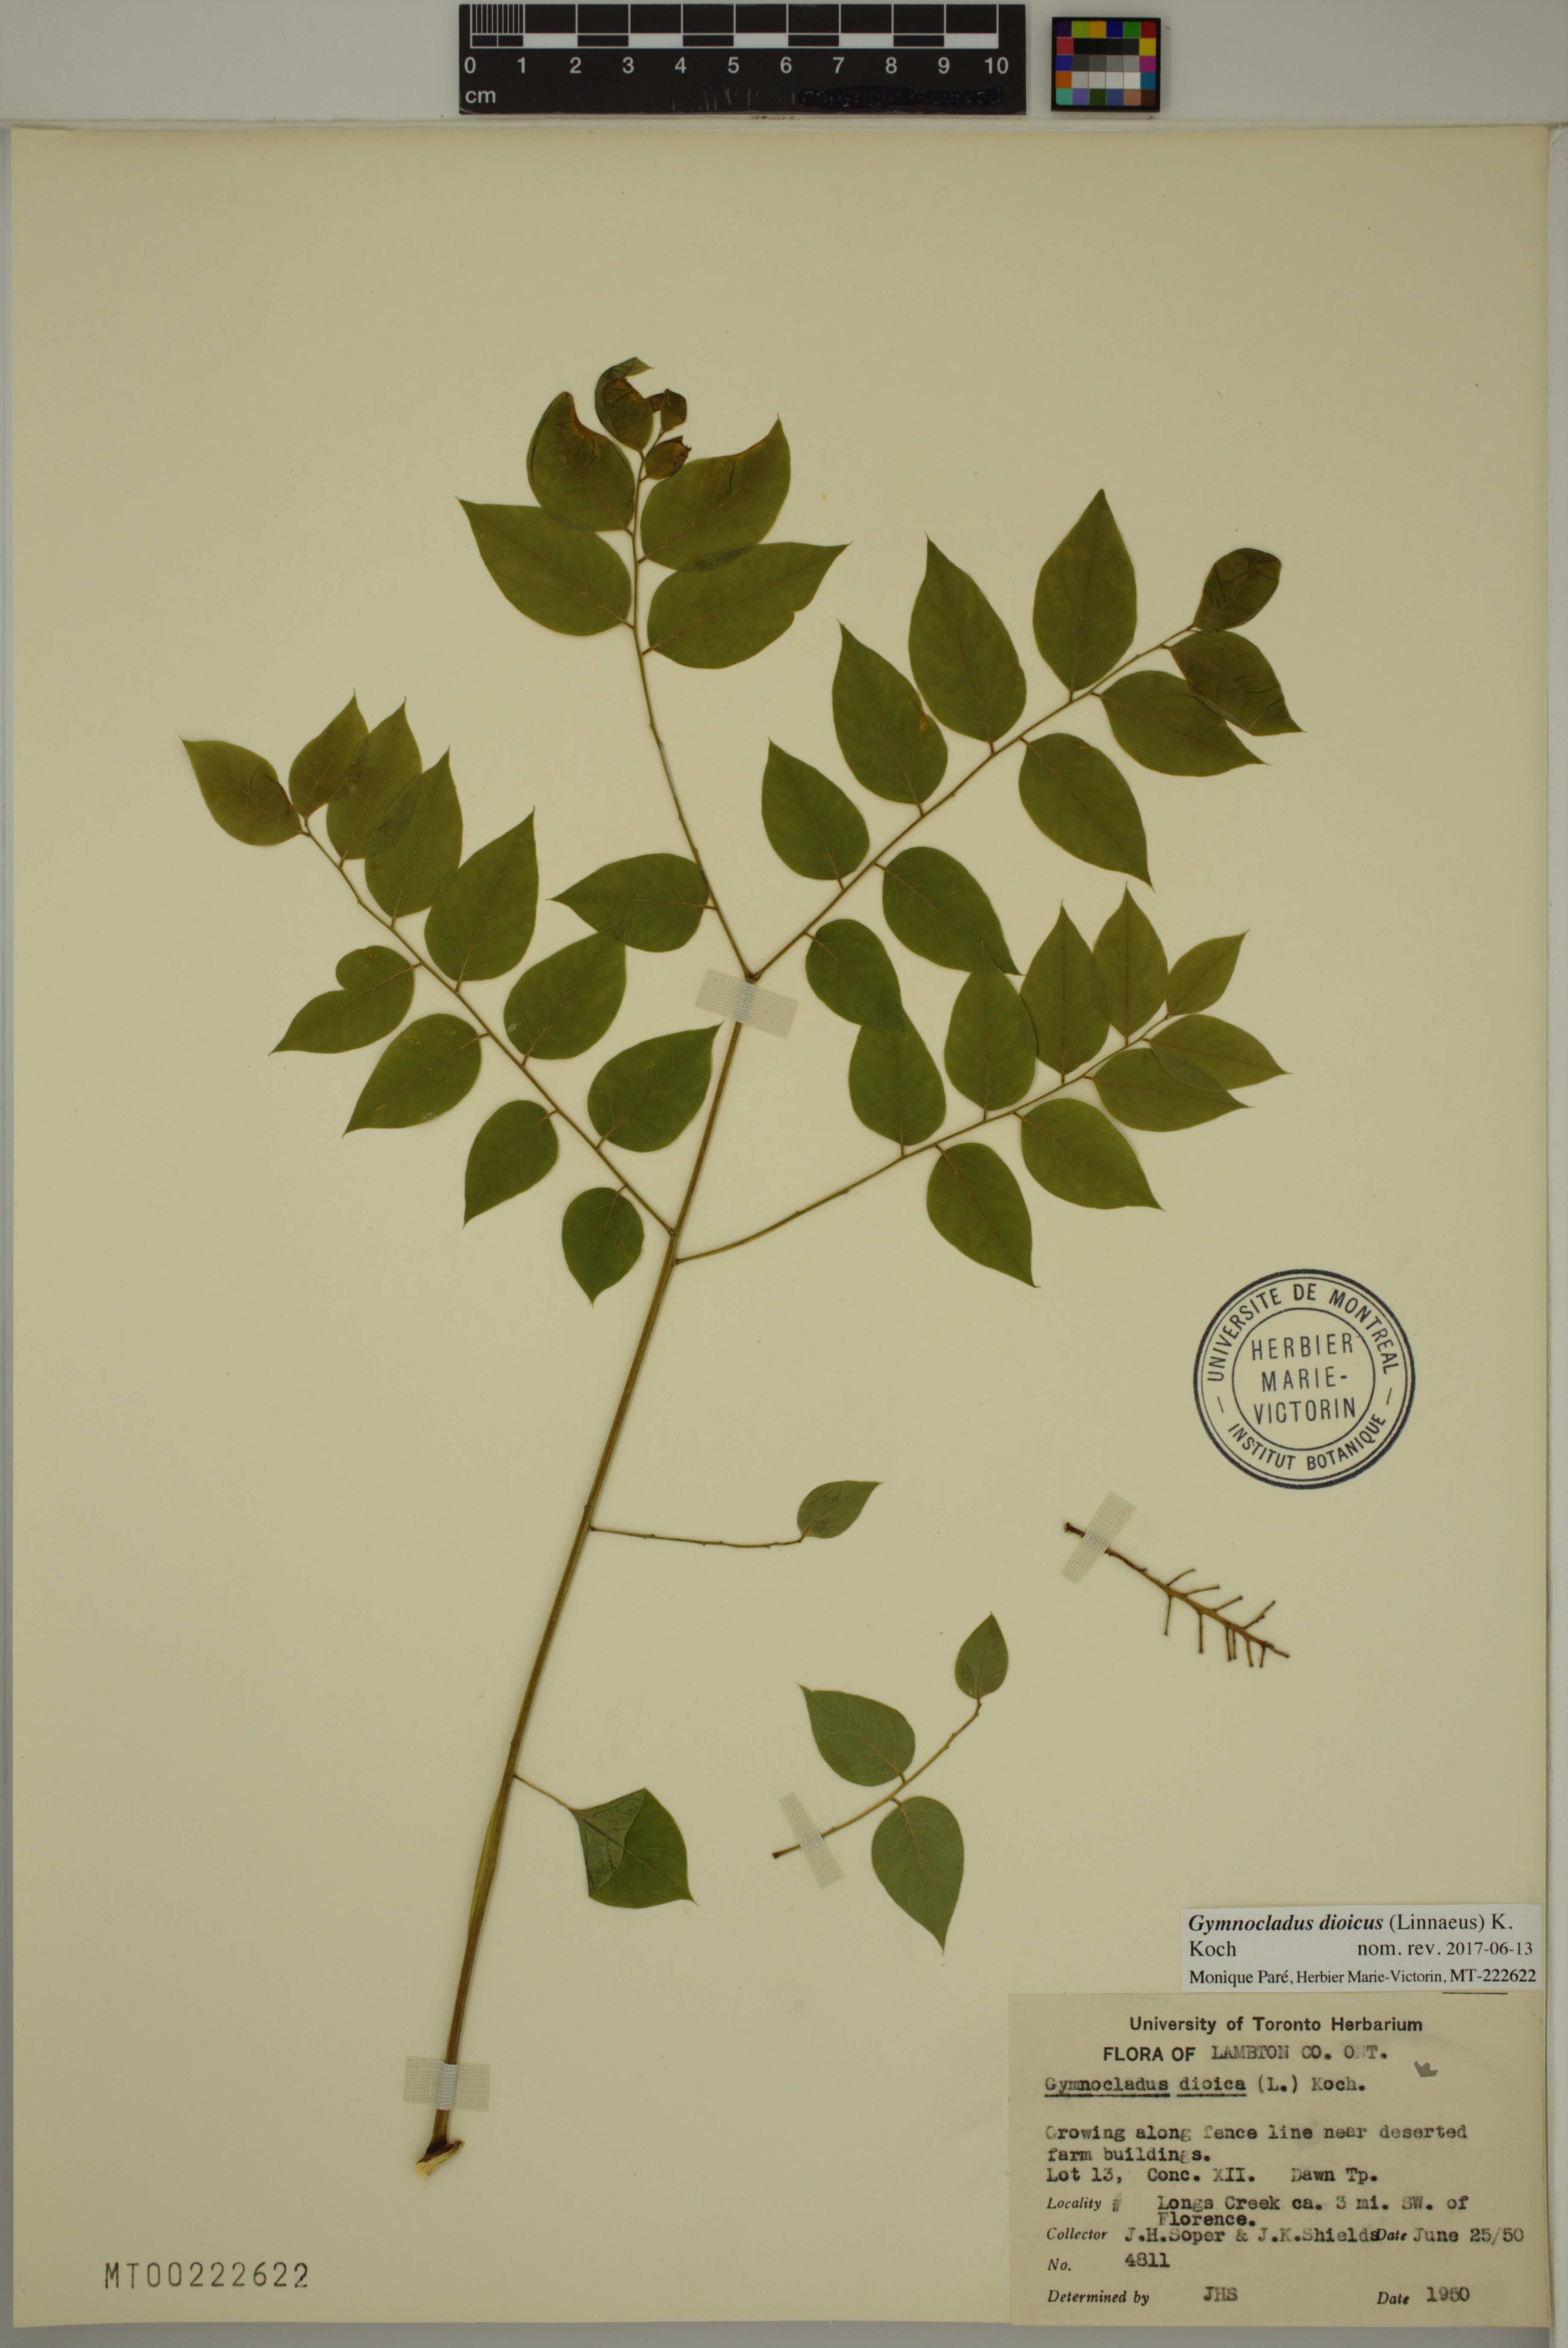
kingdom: Plantae
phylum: Tracheophyta
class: Magnoliopsida
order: Fabales
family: Fabaceae
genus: Gymnocladus
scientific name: Gymnocladus dioicus
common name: Kentucky coffee-tree
